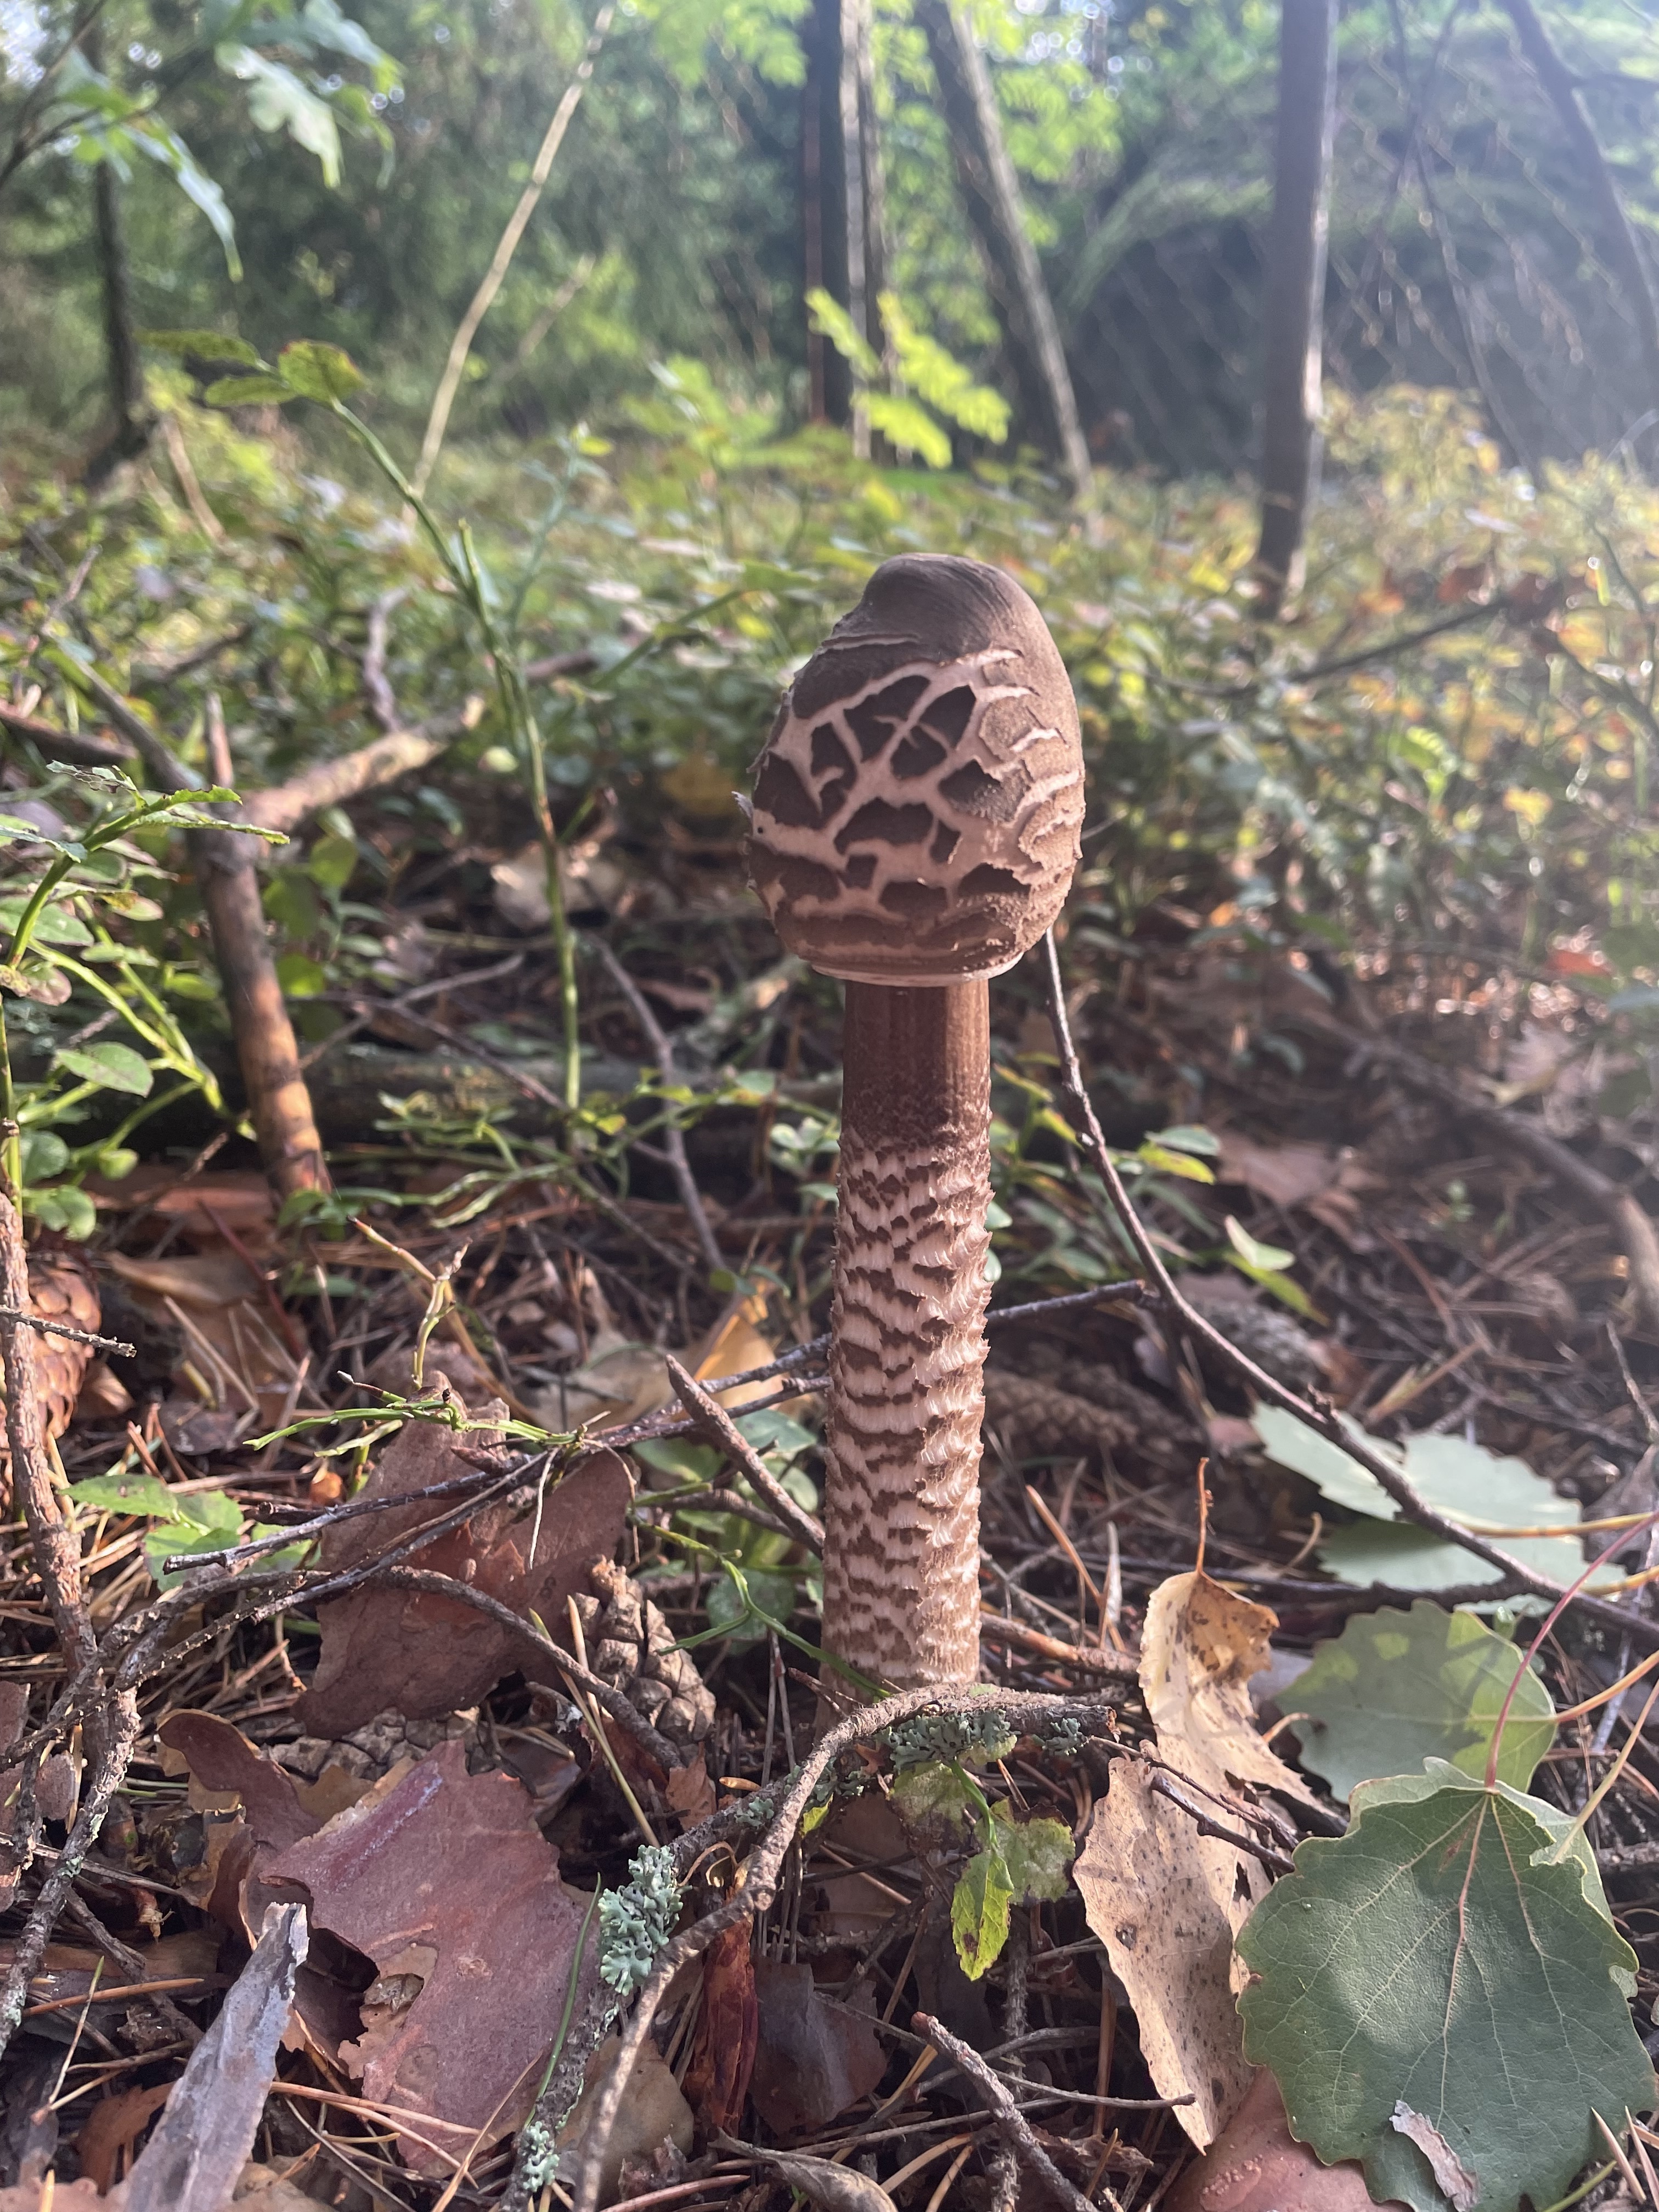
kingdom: Fungi
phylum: Basidiomycota
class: Agaricomycetes
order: Agaricales
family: Agaricaceae
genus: Macrolepiota
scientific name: Macrolepiota procera
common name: Parasol
